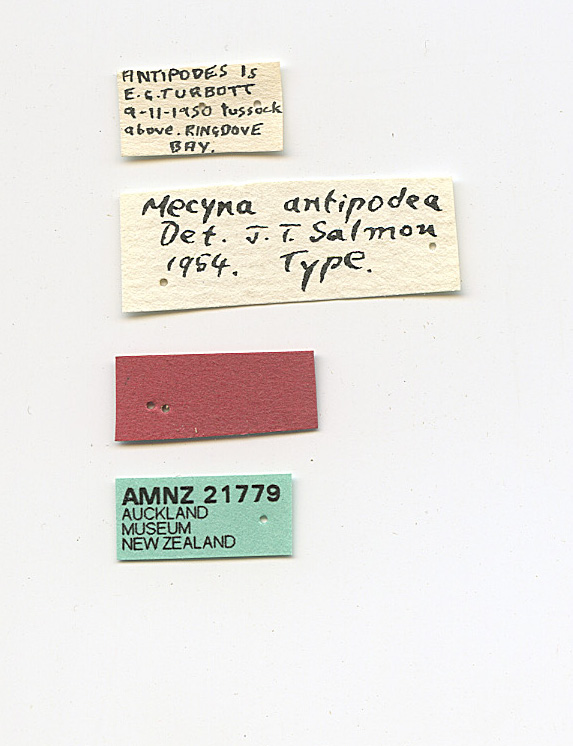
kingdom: Animalia
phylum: Arthropoda
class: Insecta
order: Lepidoptera
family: Crambidae
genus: Uresiphita
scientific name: Uresiphita antipodea
